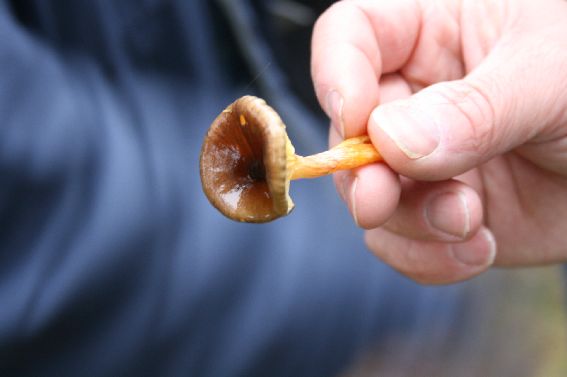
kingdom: Fungi
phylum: Basidiomycota
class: Agaricomycetes
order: Agaricales
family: Hygrophoraceae
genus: Hygrophorus
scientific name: Hygrophorus hypothejus
